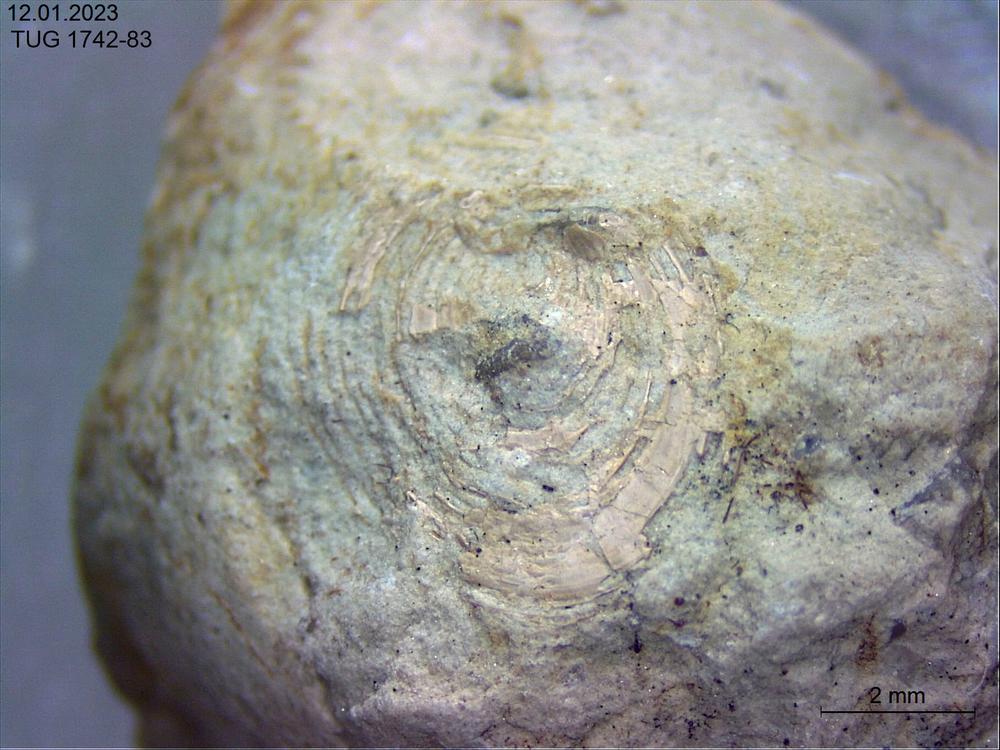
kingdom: Animalia
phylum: Brachiopoda
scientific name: Brachiopoda
